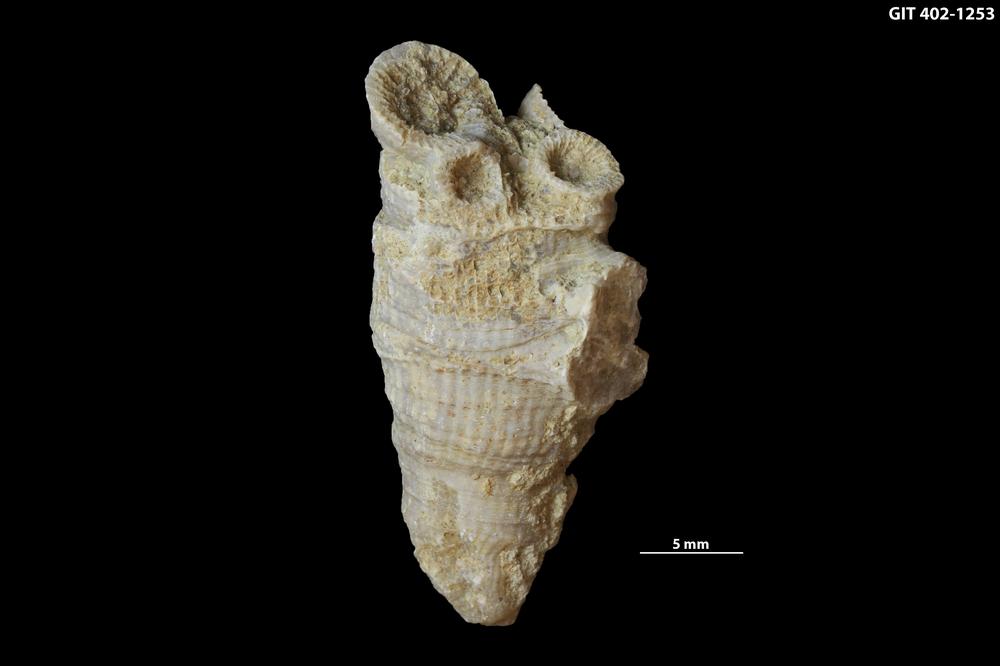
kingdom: Animalia
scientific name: Animalia
